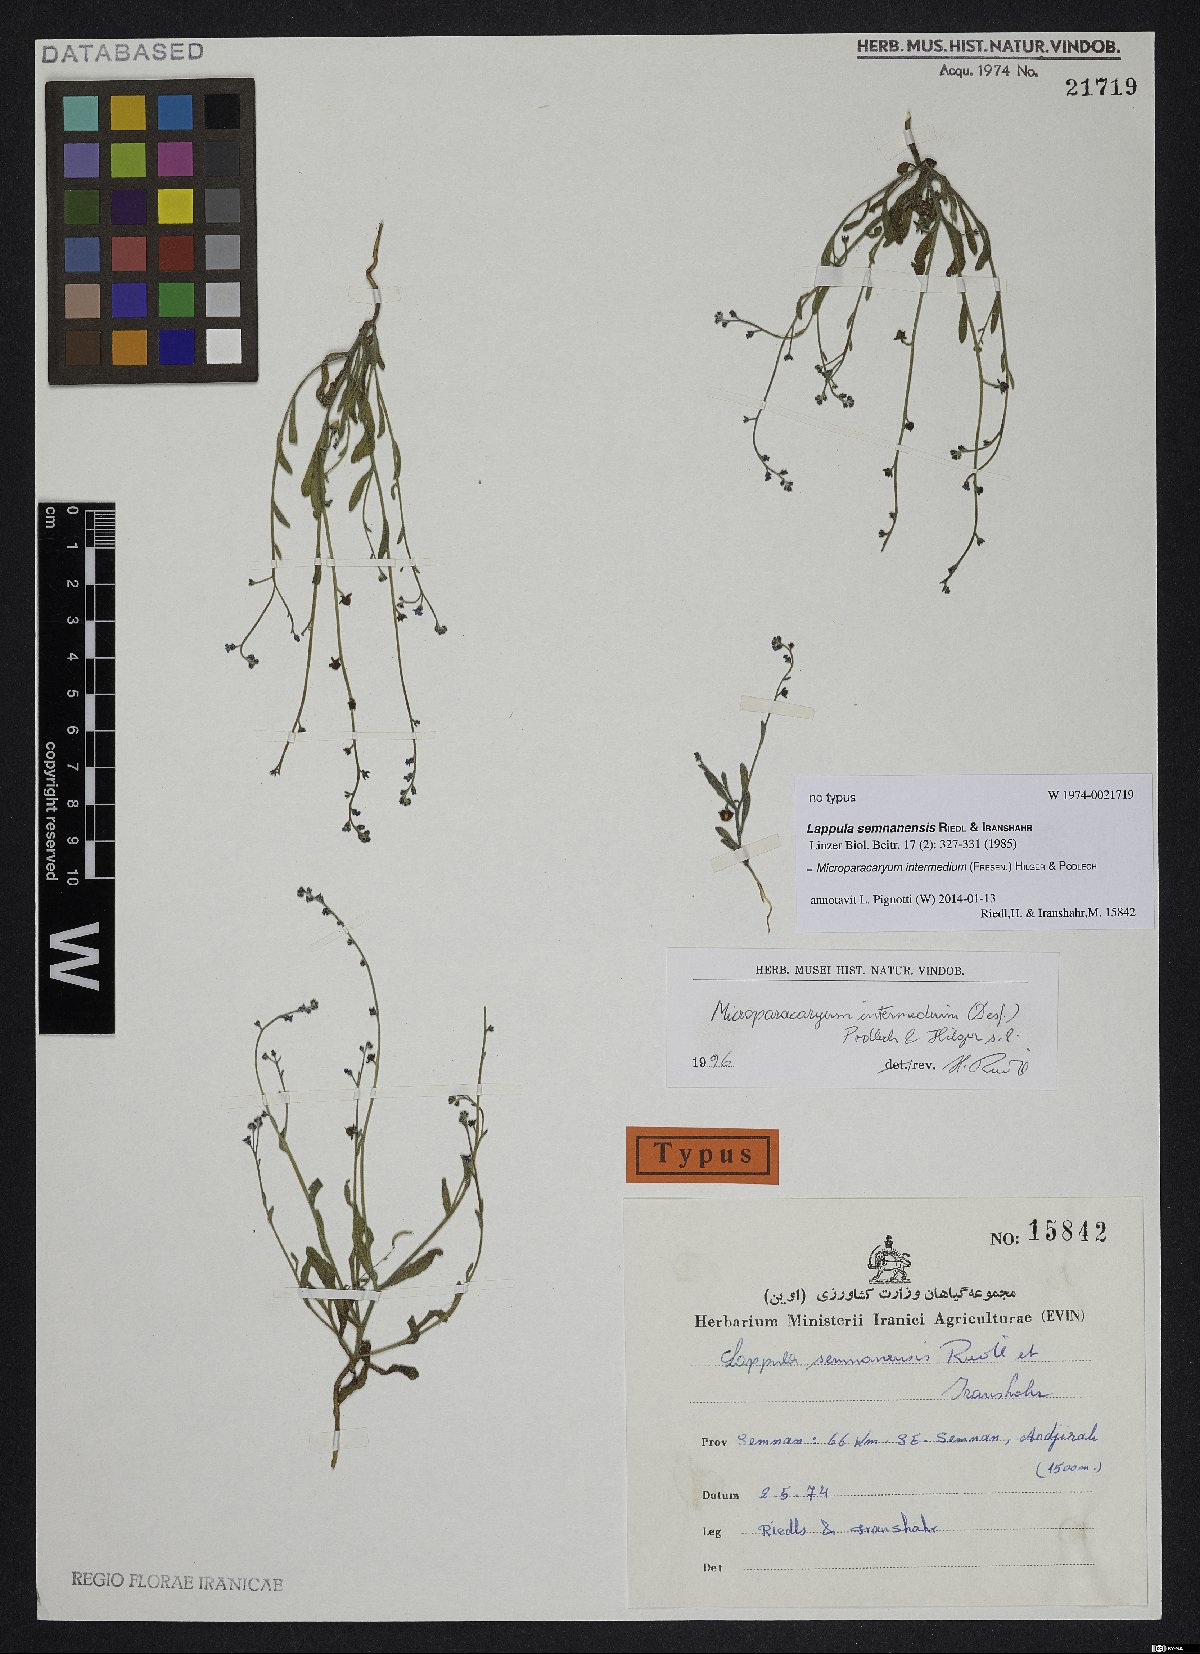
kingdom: Plantae
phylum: Tracheophyta
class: Magnoliopsida
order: Boraginales
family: Boraginaceae
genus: Microparacaryum
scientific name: Microparacaryum intermedium
